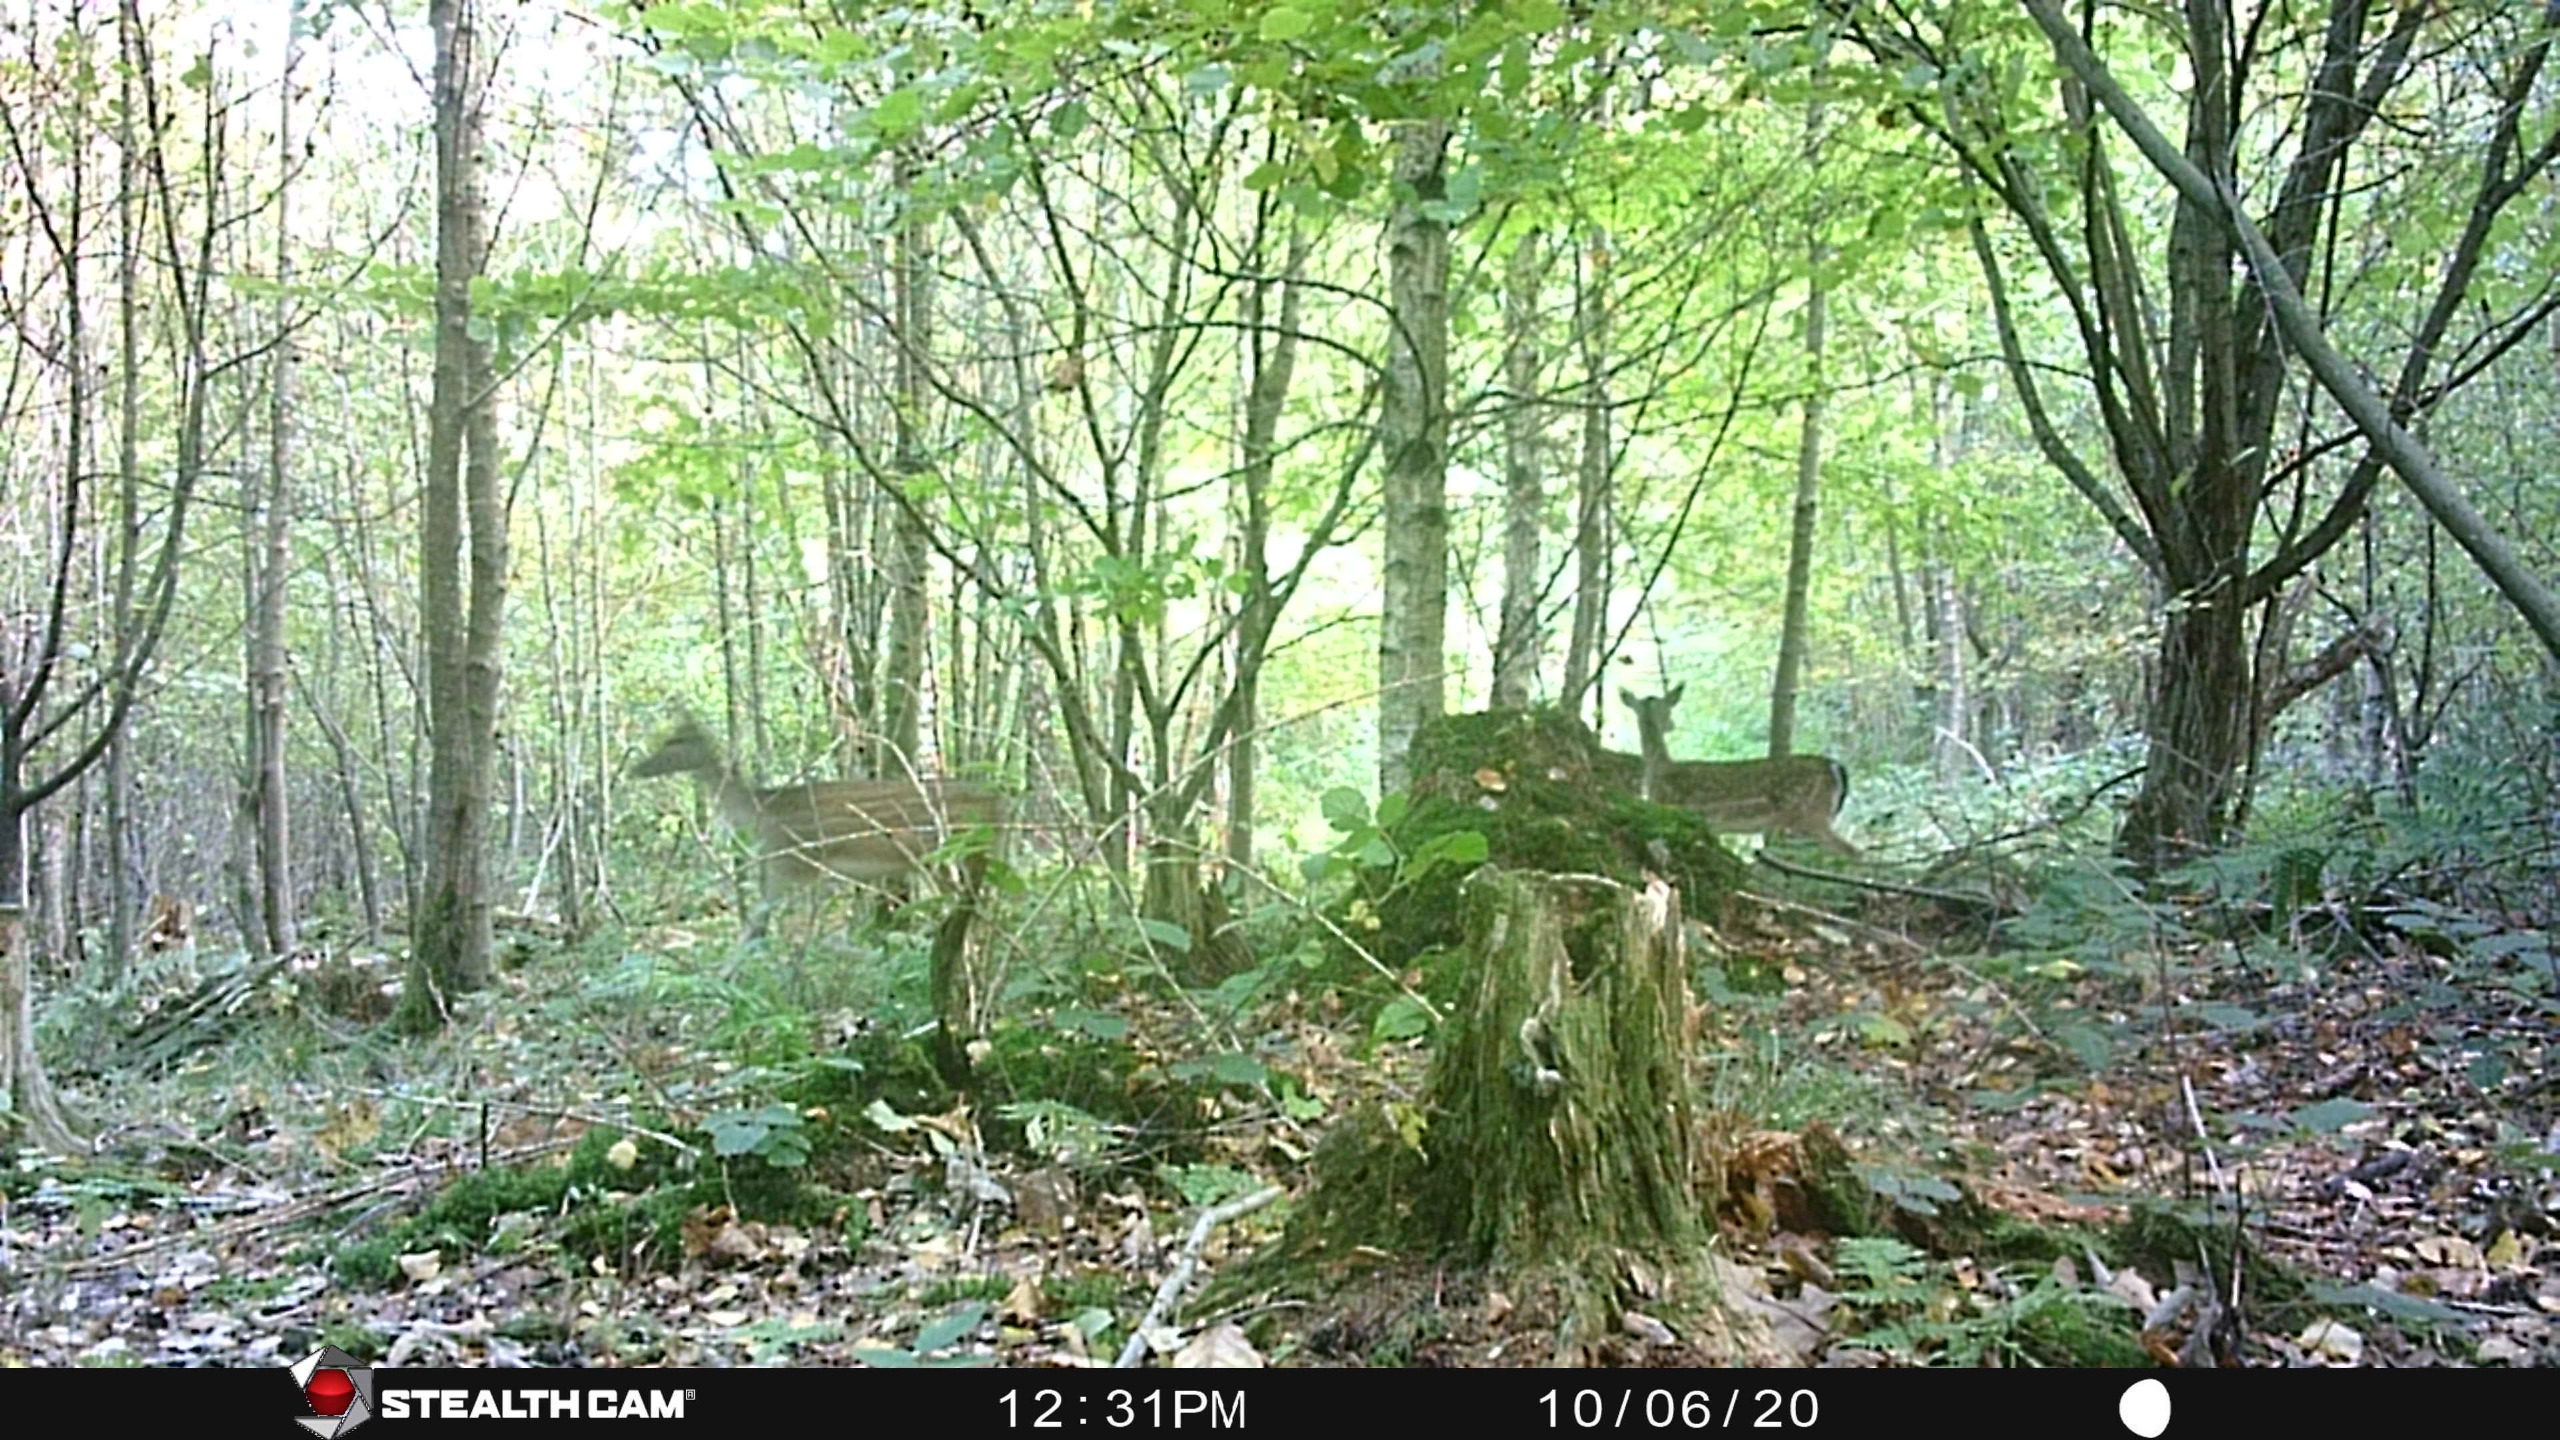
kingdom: Animalia
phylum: Chordata
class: Mammalia
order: Artiodactyla
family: Cervidae
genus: Dama
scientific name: Dama dama
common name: Dådyr
